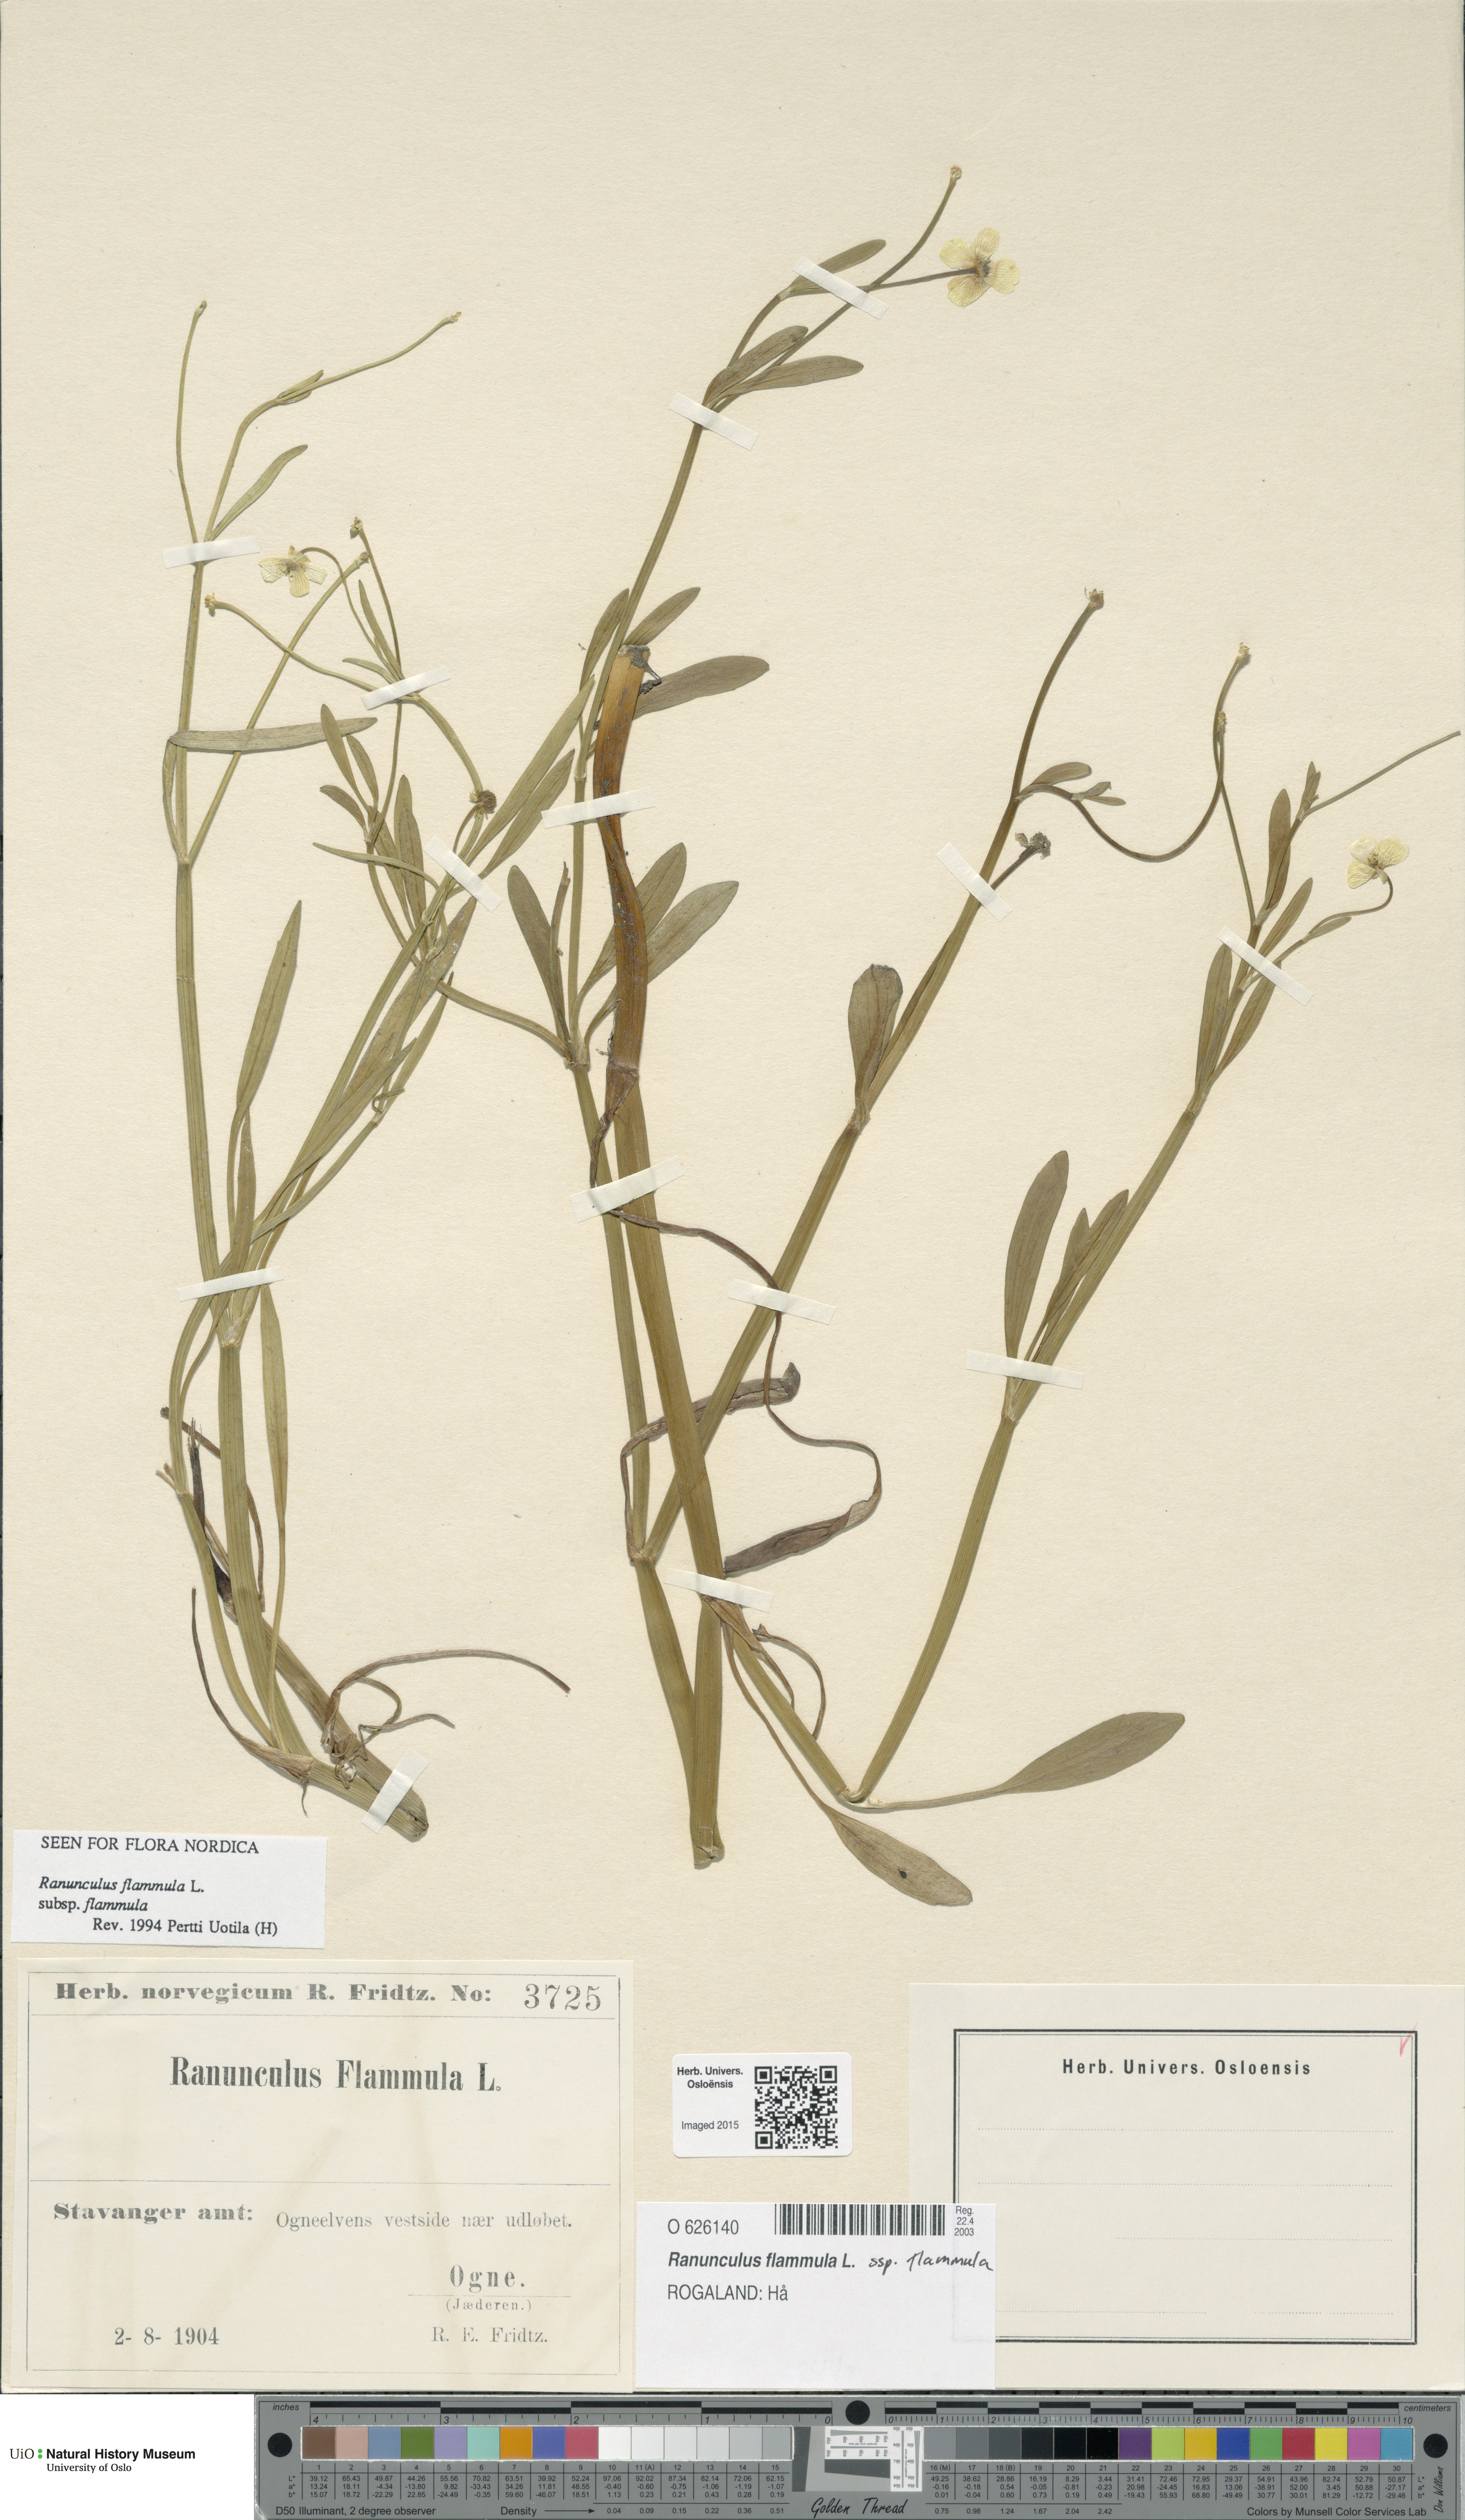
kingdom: Plantae
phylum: Tracheophyta
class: Magnoliopsida
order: Ranunculales
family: Ranunculaceae
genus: Ranunculus
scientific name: Ranunculus flammula
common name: Lesser spearwort
